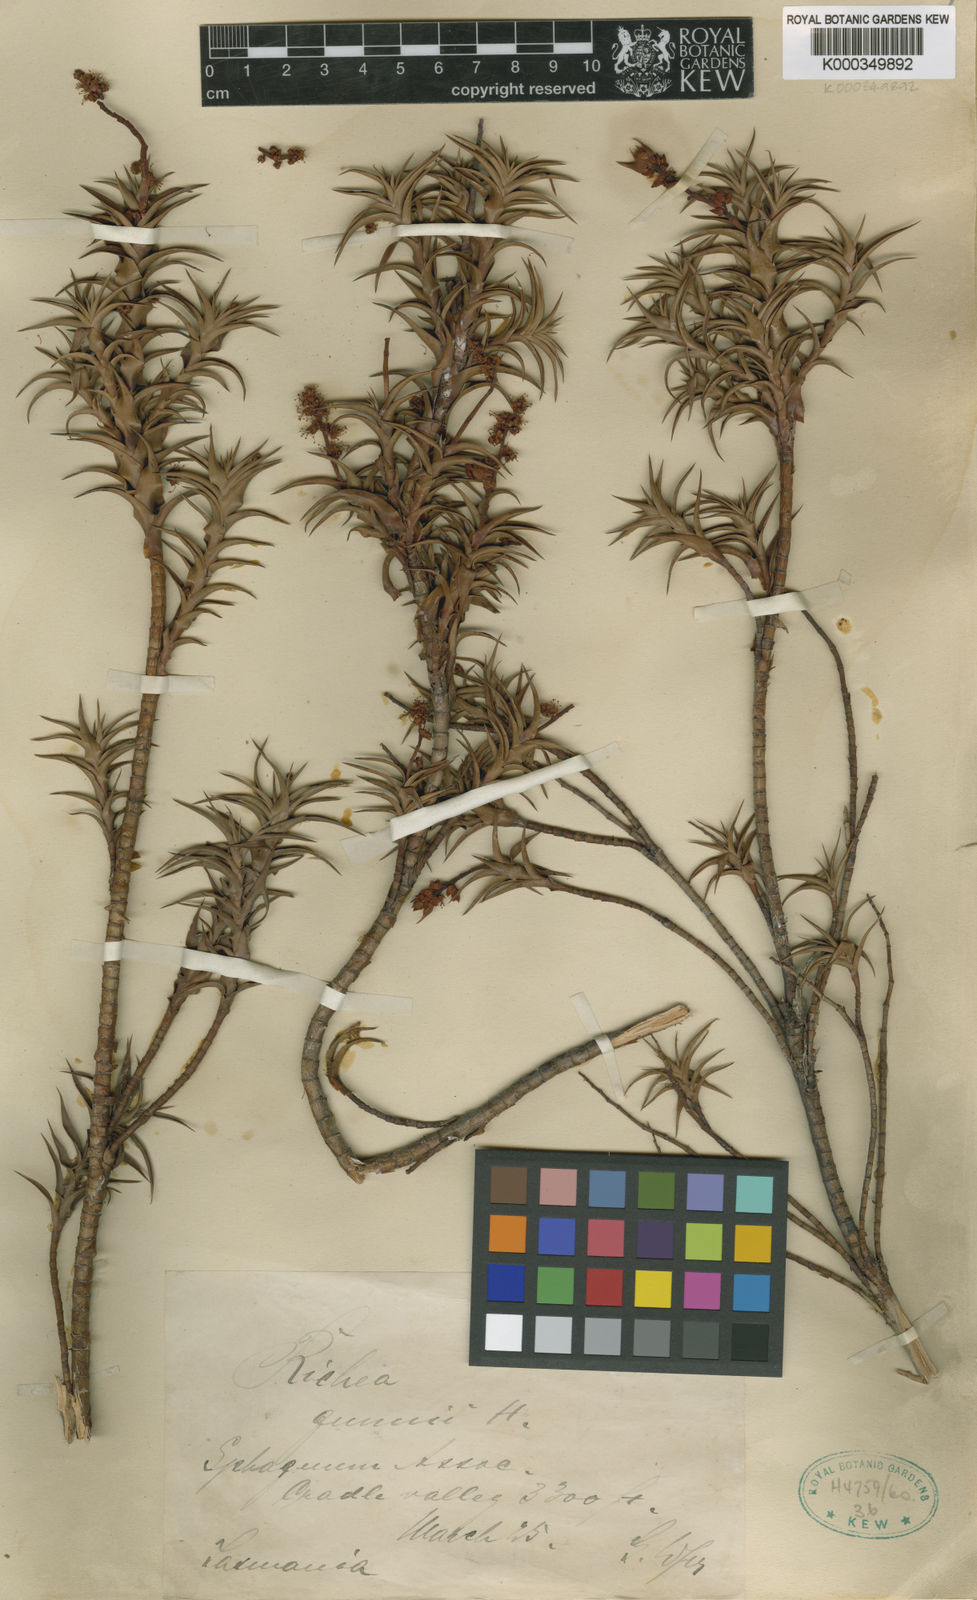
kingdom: Plantae
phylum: Tracheophyta
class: Magnoliopsida
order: Ericales
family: Ericaceae
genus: Dracophyllum
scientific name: Dracophyllum gunnii
